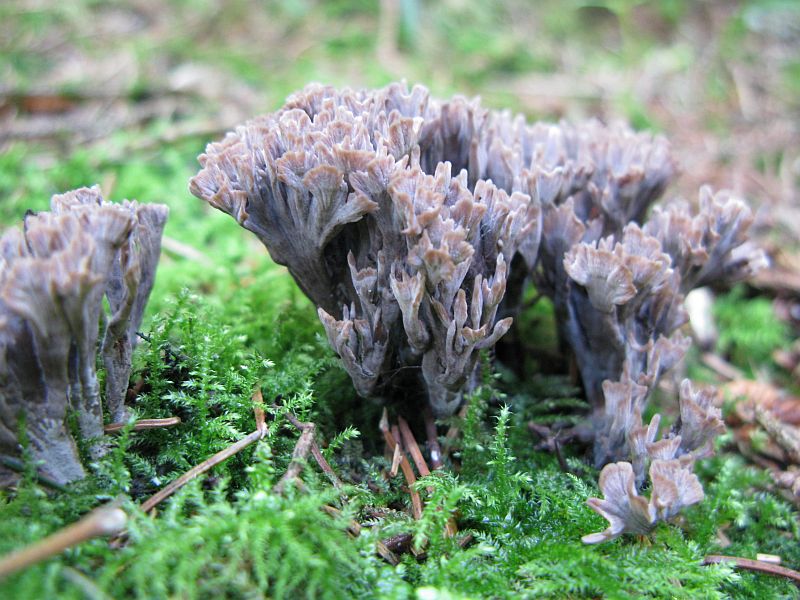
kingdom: Fungi
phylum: Basidiomycota
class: Agaricomycetes
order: Thelephorales
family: Thelephoraceae
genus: Thelephora
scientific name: Thelephora palmata
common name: grenet frynsesvamp
